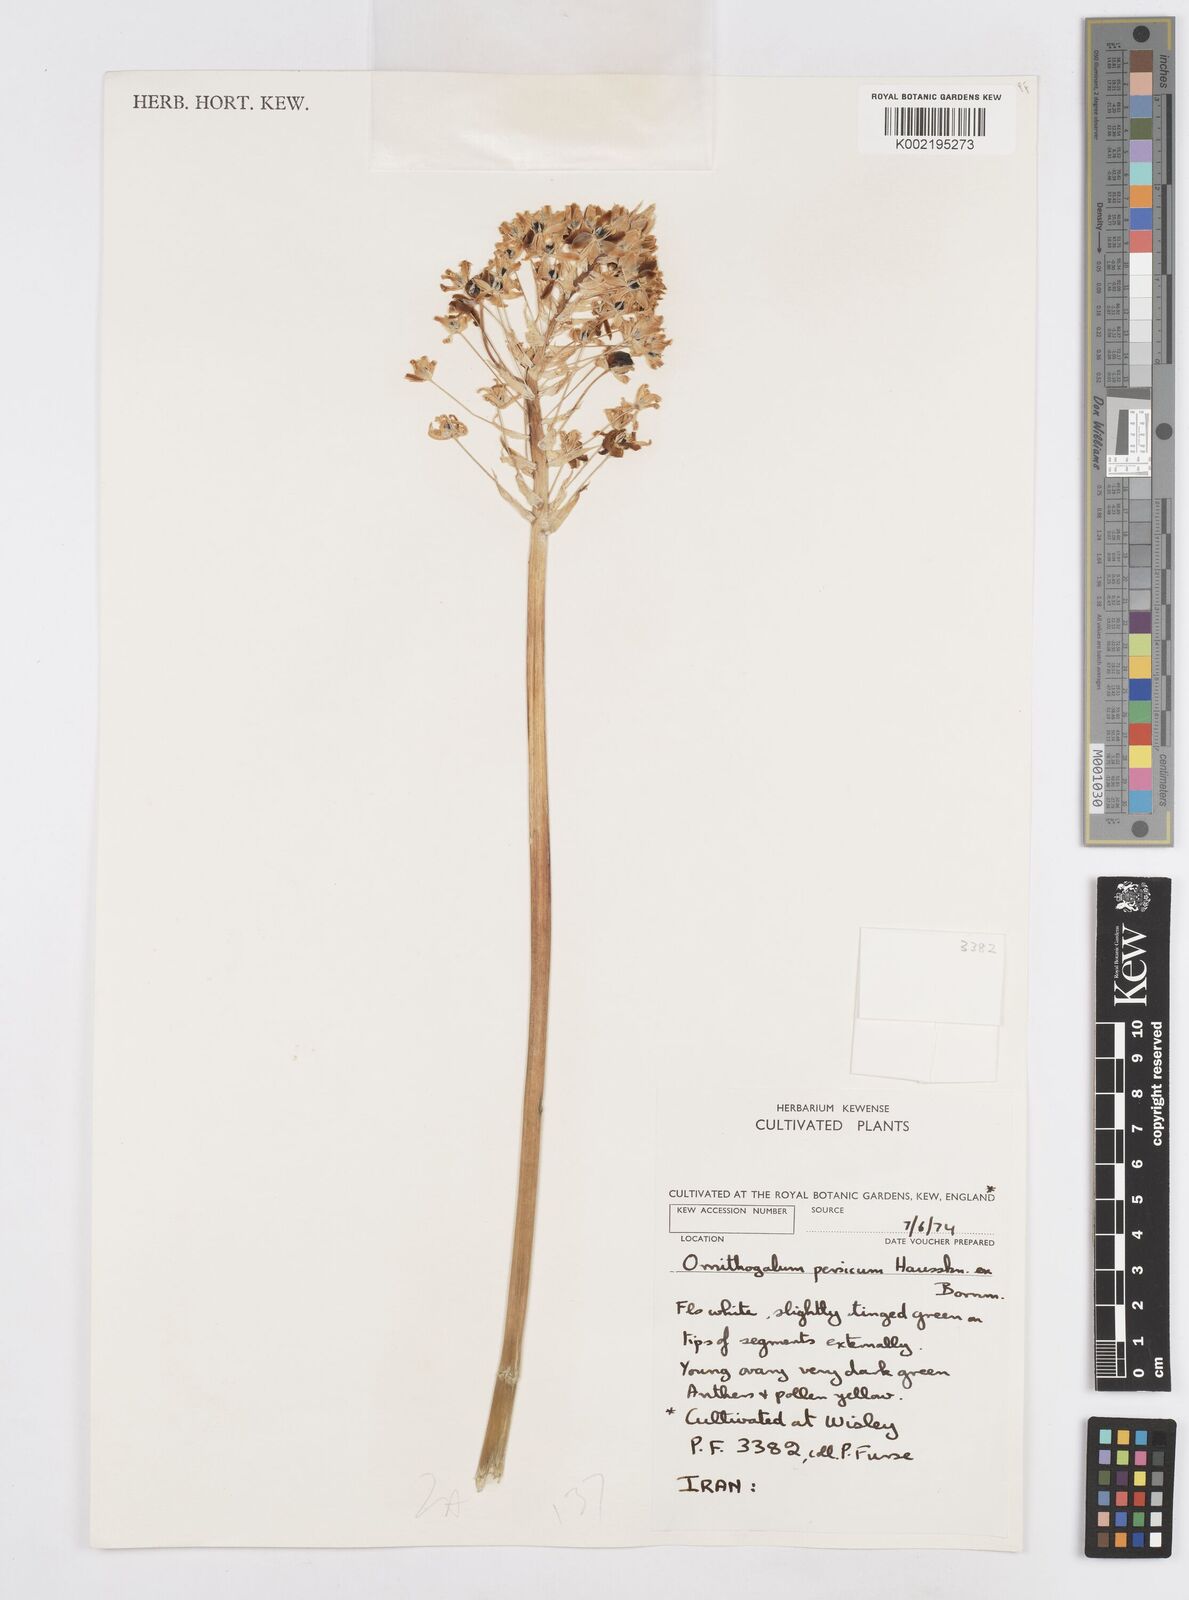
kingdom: Plantae
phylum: Tracheophyta
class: Liliopsida
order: Asparagales
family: Asparagaceae
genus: Ornithogalum
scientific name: Ornithogalum persicum
